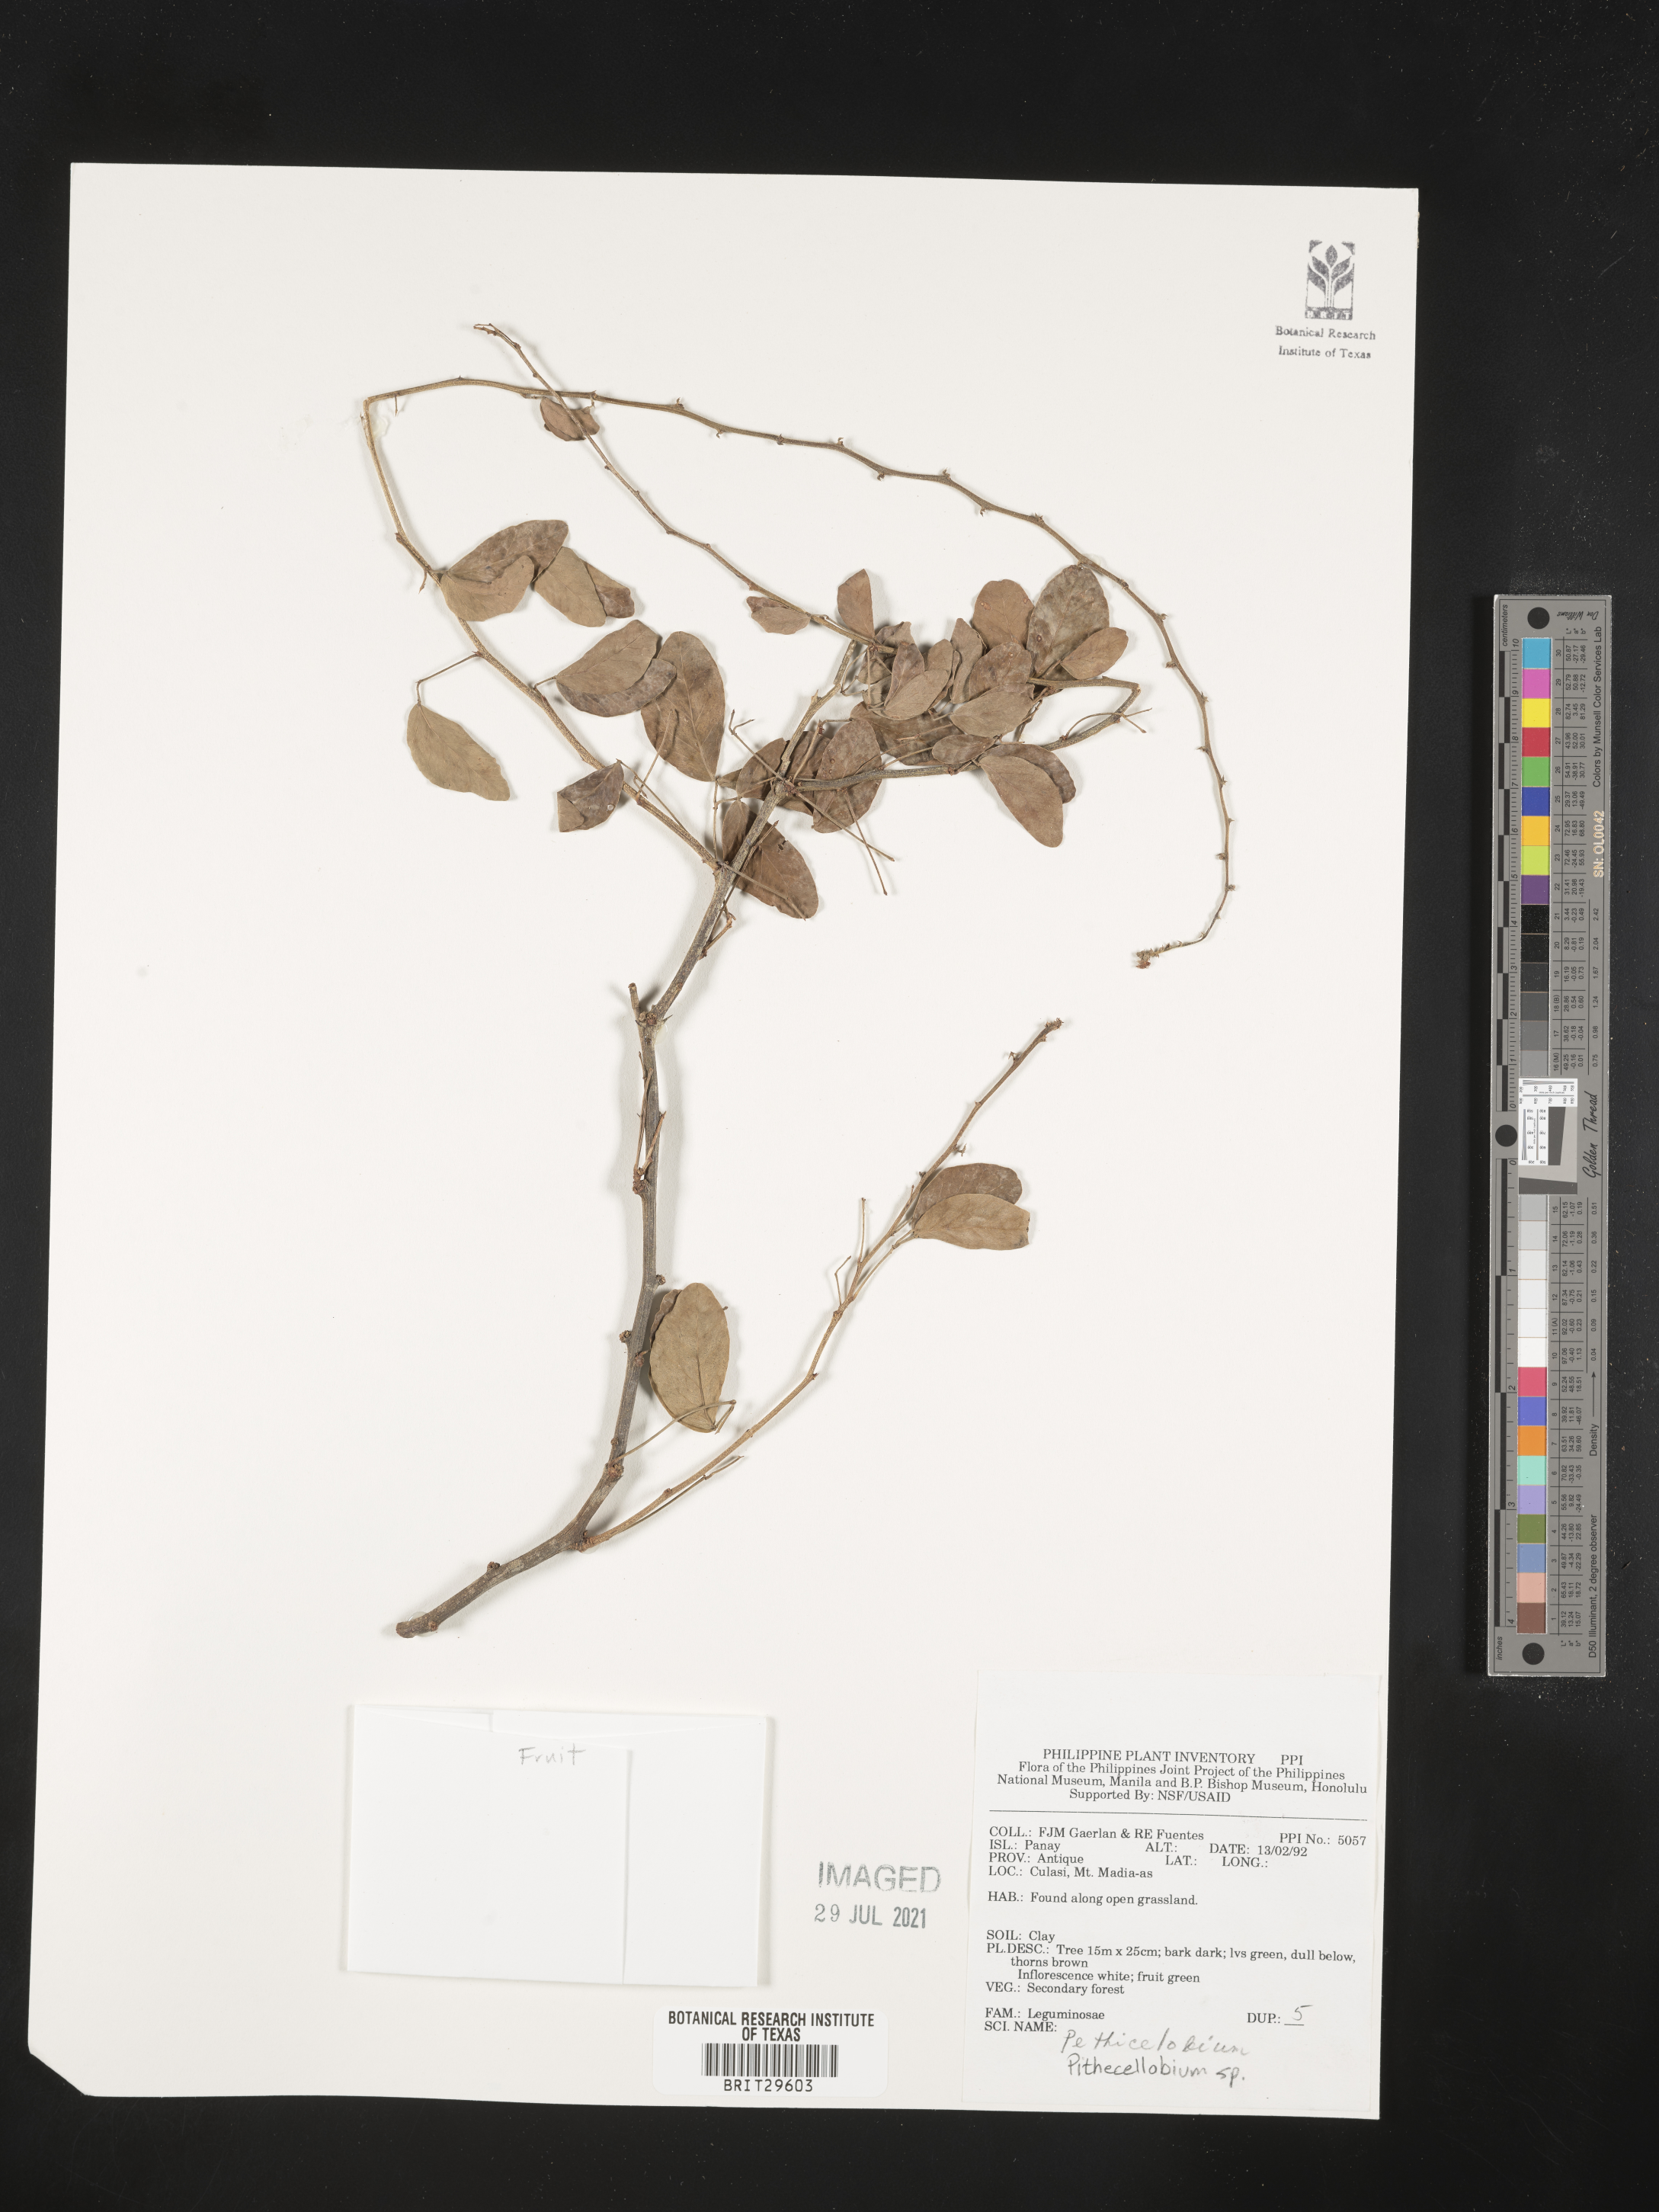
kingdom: Plantae
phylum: Tracheophyta
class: Magnoliopsida
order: Fabales
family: Fabaceae
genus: Pithecellobium
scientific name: Pithecellobium
